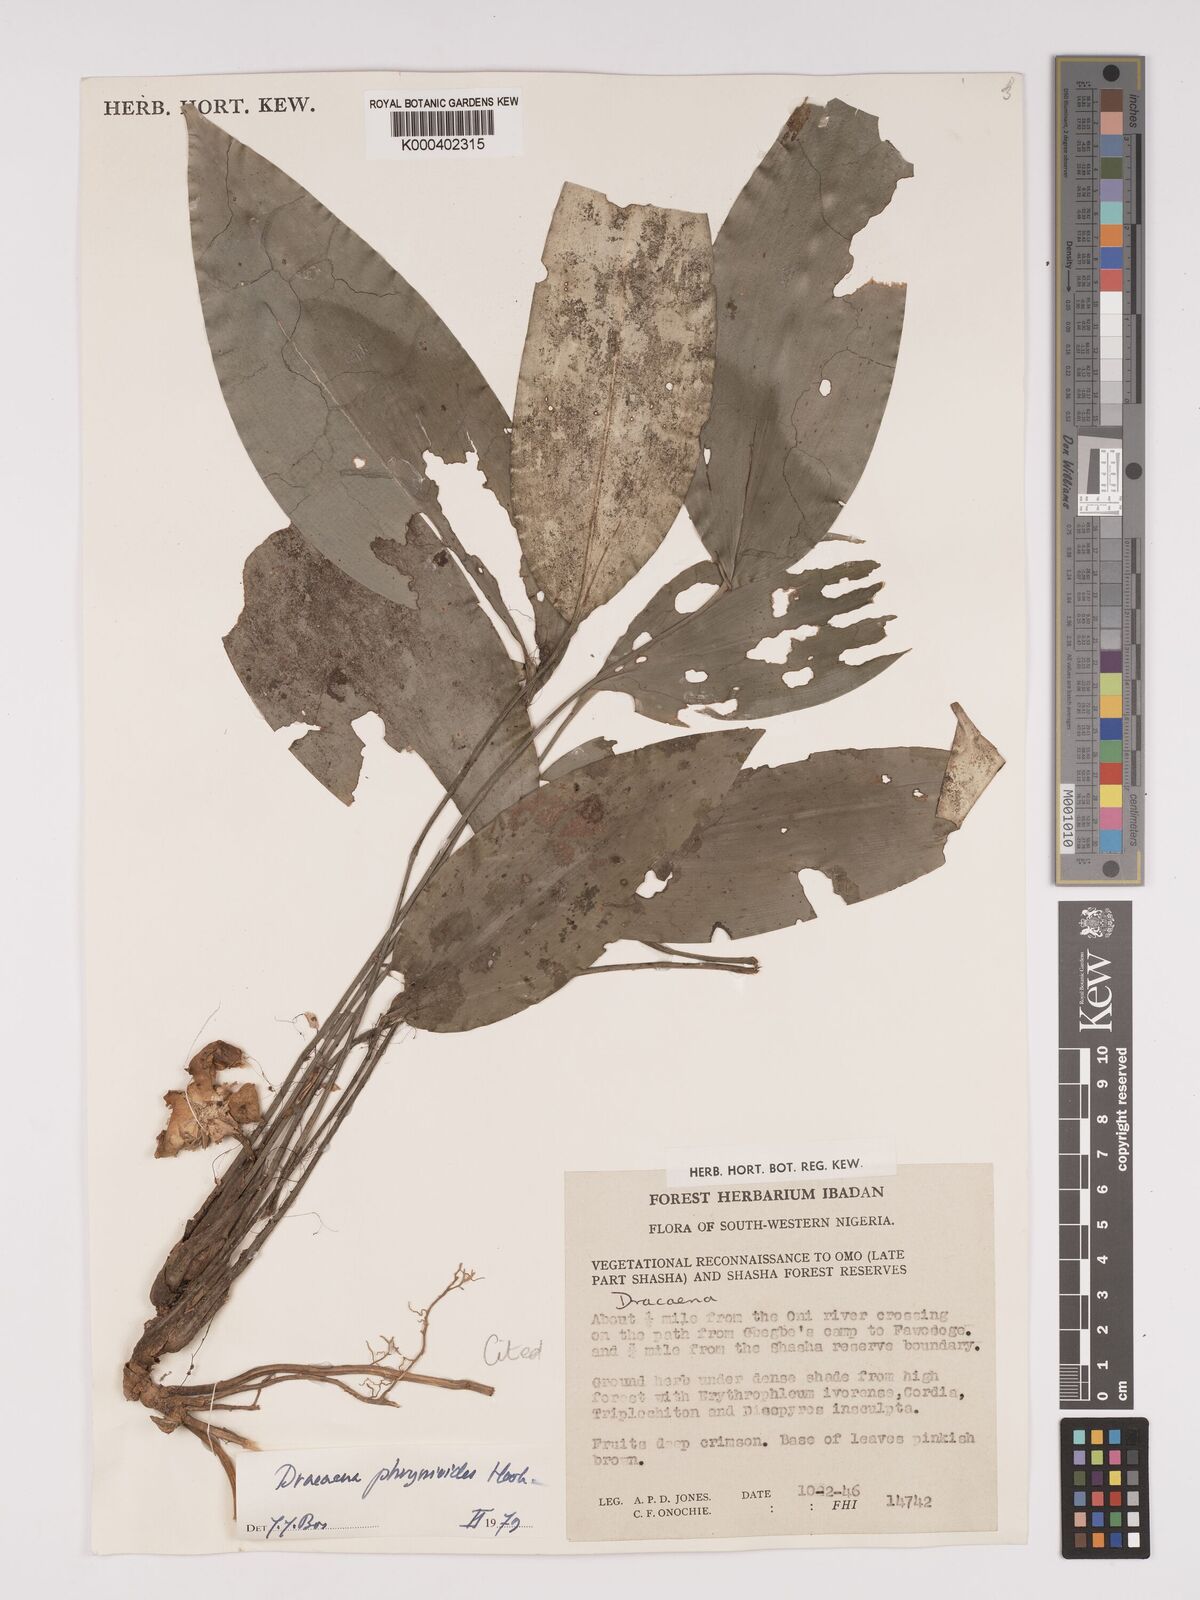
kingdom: Plantae
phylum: Tracheophyta
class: Liliopsida
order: Asparagales
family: Asparagaceae
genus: Dracaena
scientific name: Dracaena phrynioides
